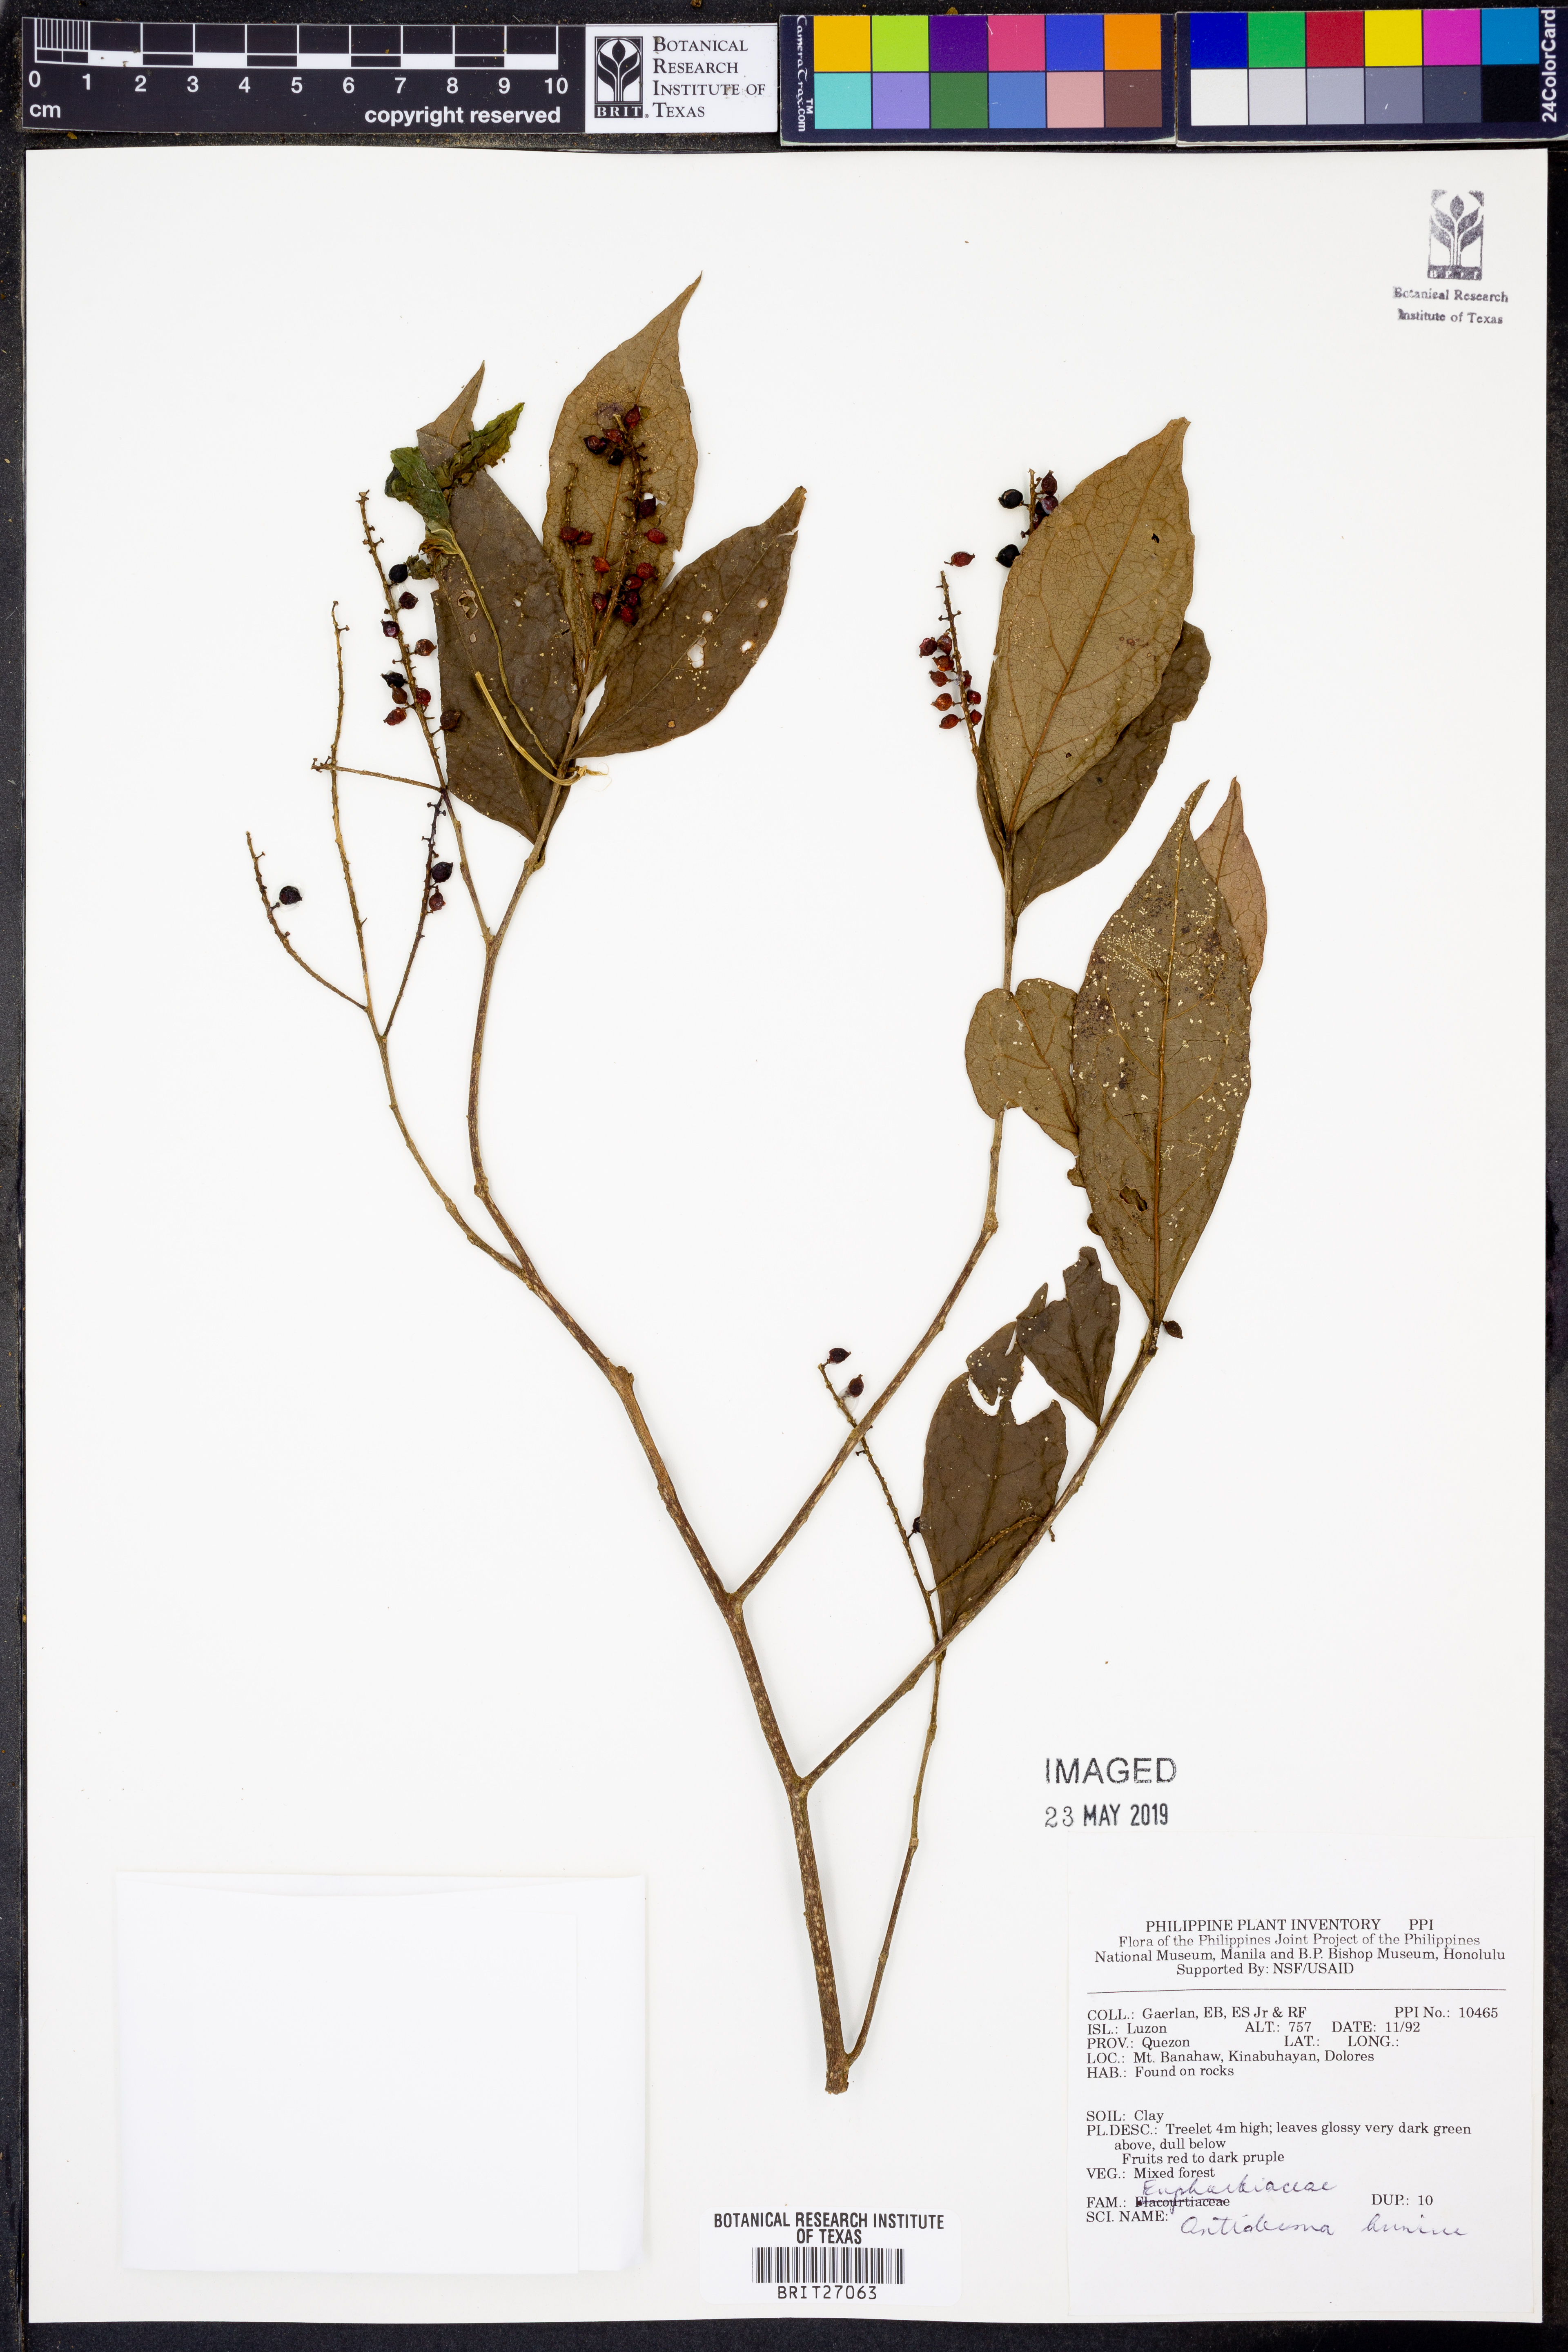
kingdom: Plantae
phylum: Tracheophyta
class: Magnoliopsida
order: Malpighiales
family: Phyllanthaceae
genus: Antidesma
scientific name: Antidesma bunius
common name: Chinese-laurel
